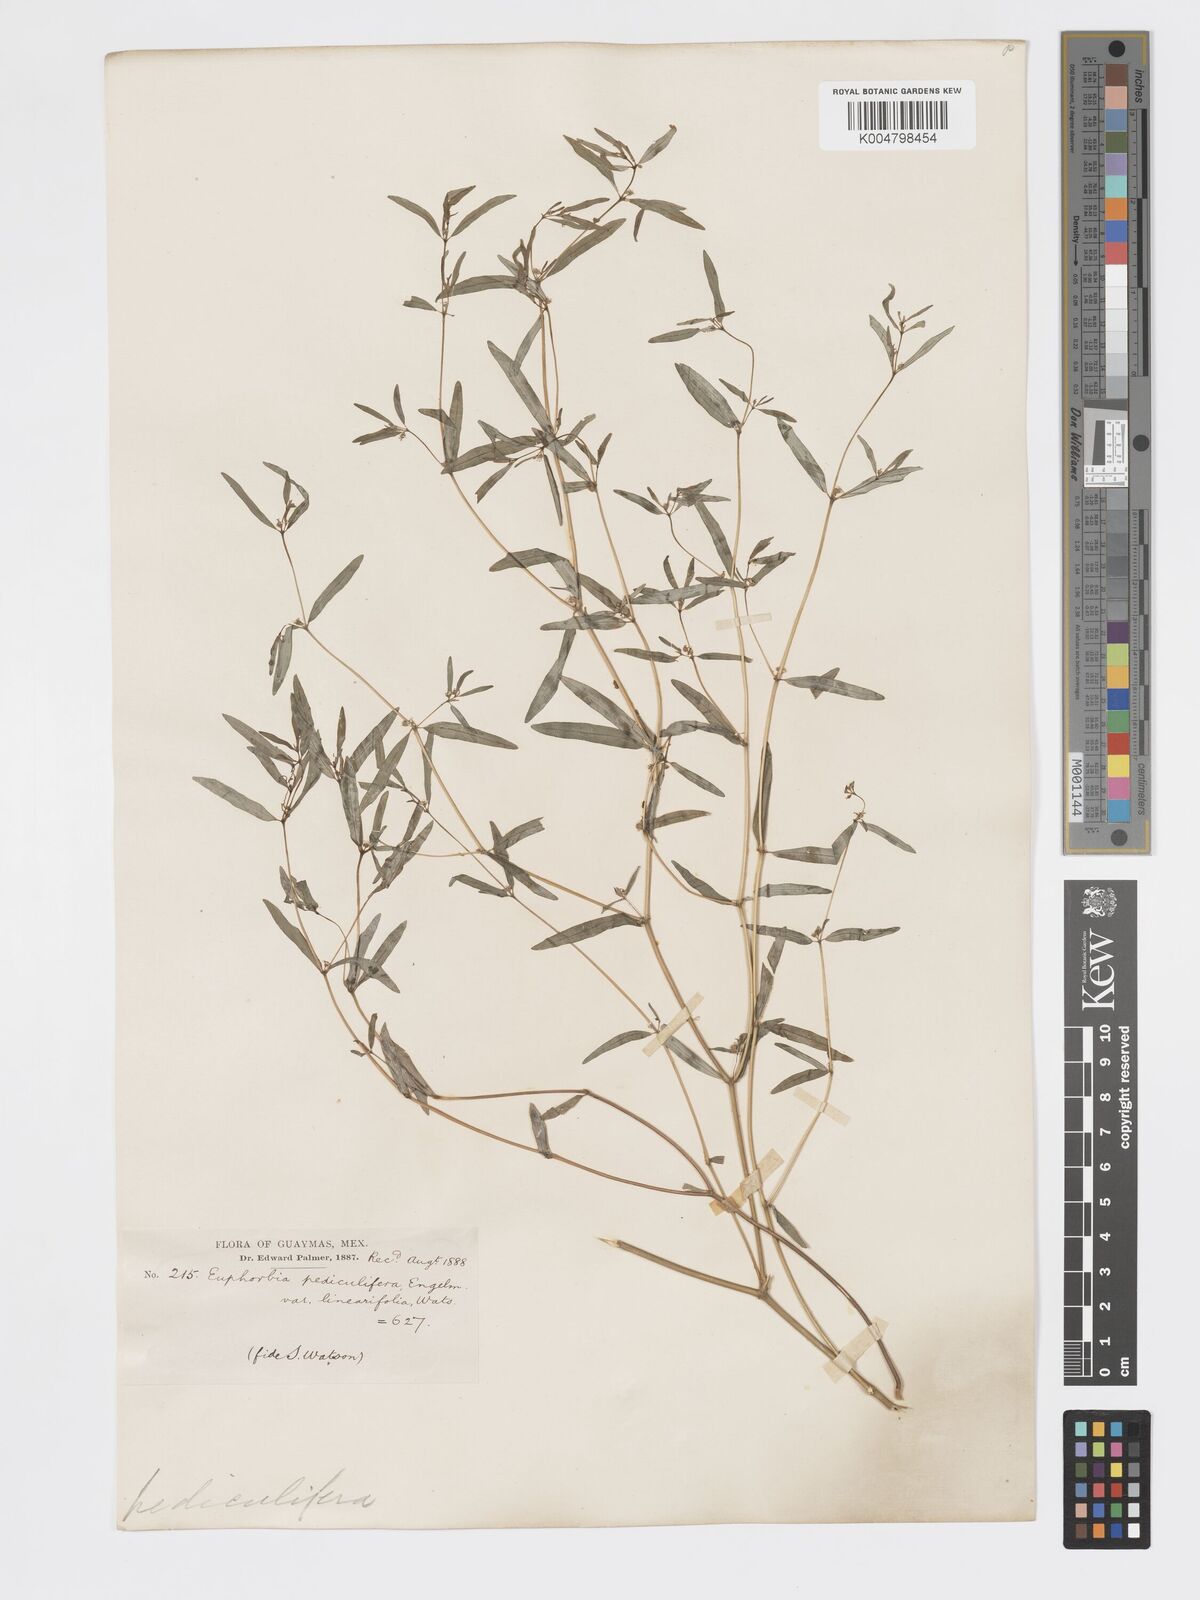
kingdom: Plantae
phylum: Tracheophyta
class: Magnoliopsida
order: Malpighiales
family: Euphorbiaceae
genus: Euphorbia
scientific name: Euphorbia pediculifera
